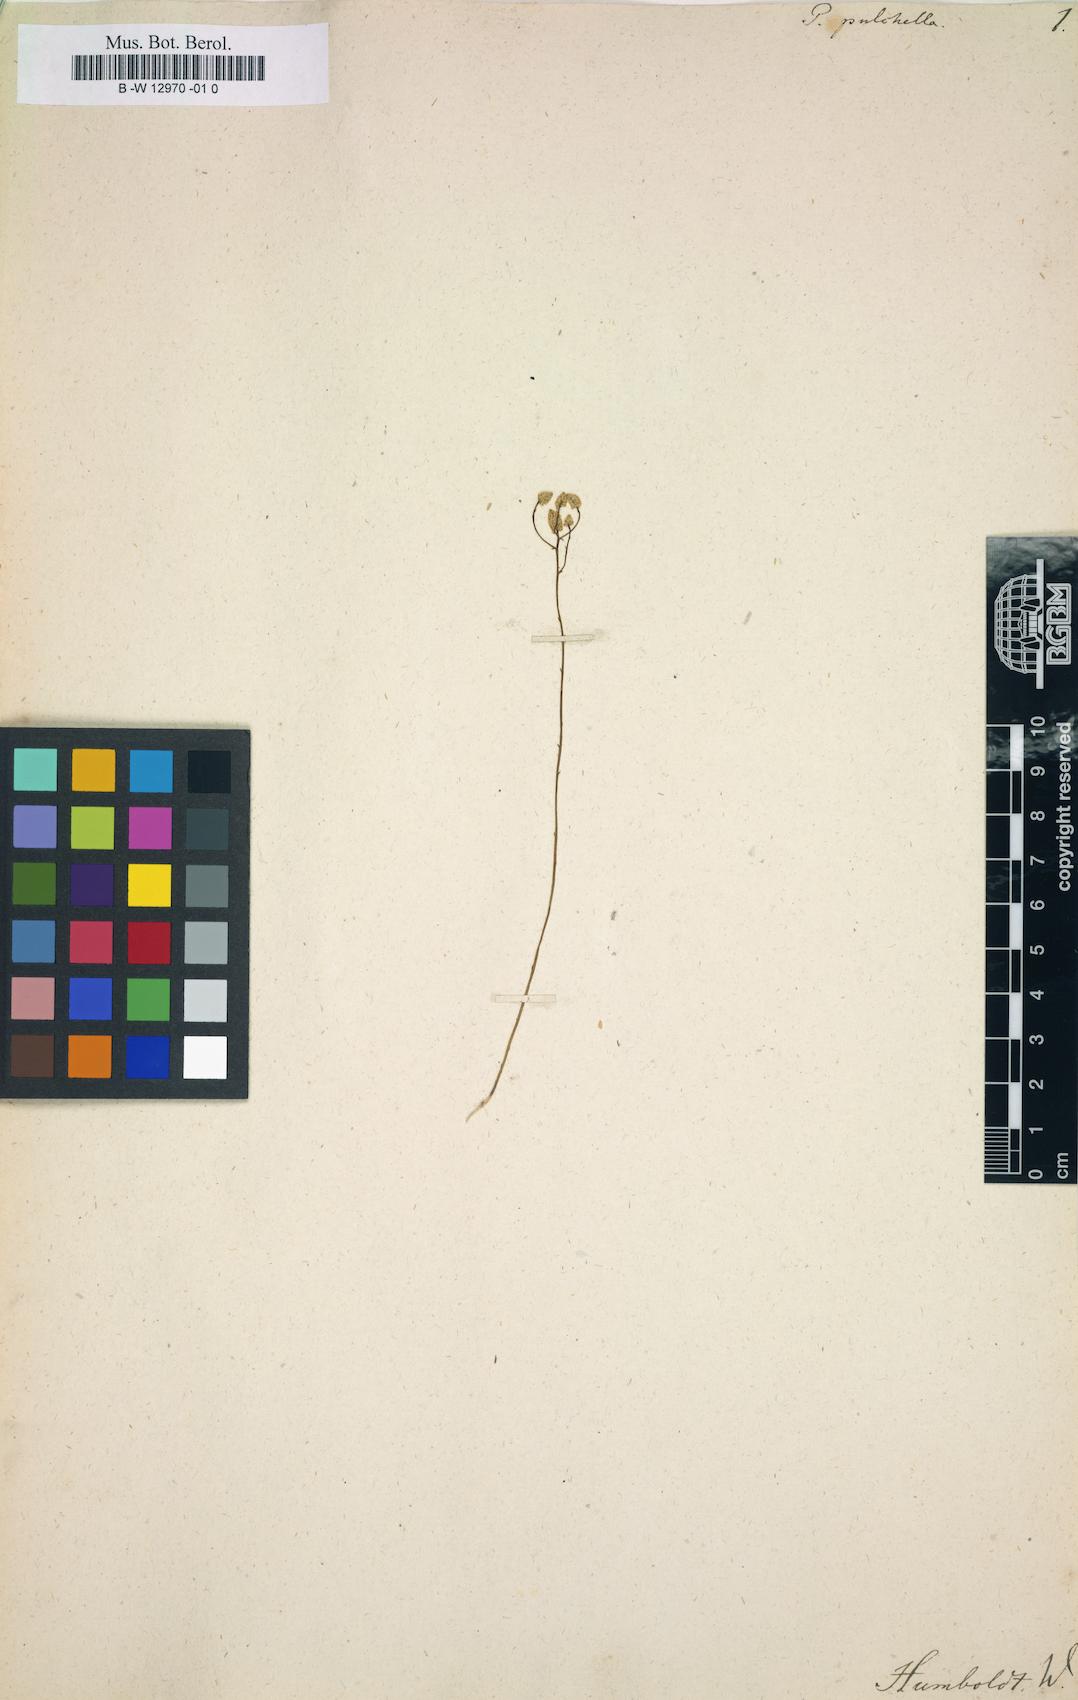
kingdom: Plantae
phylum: Tracheophyta
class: Magnoliopsida
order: Fabales
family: Polygalaceae
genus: Polygala
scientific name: Polygala pulchella
